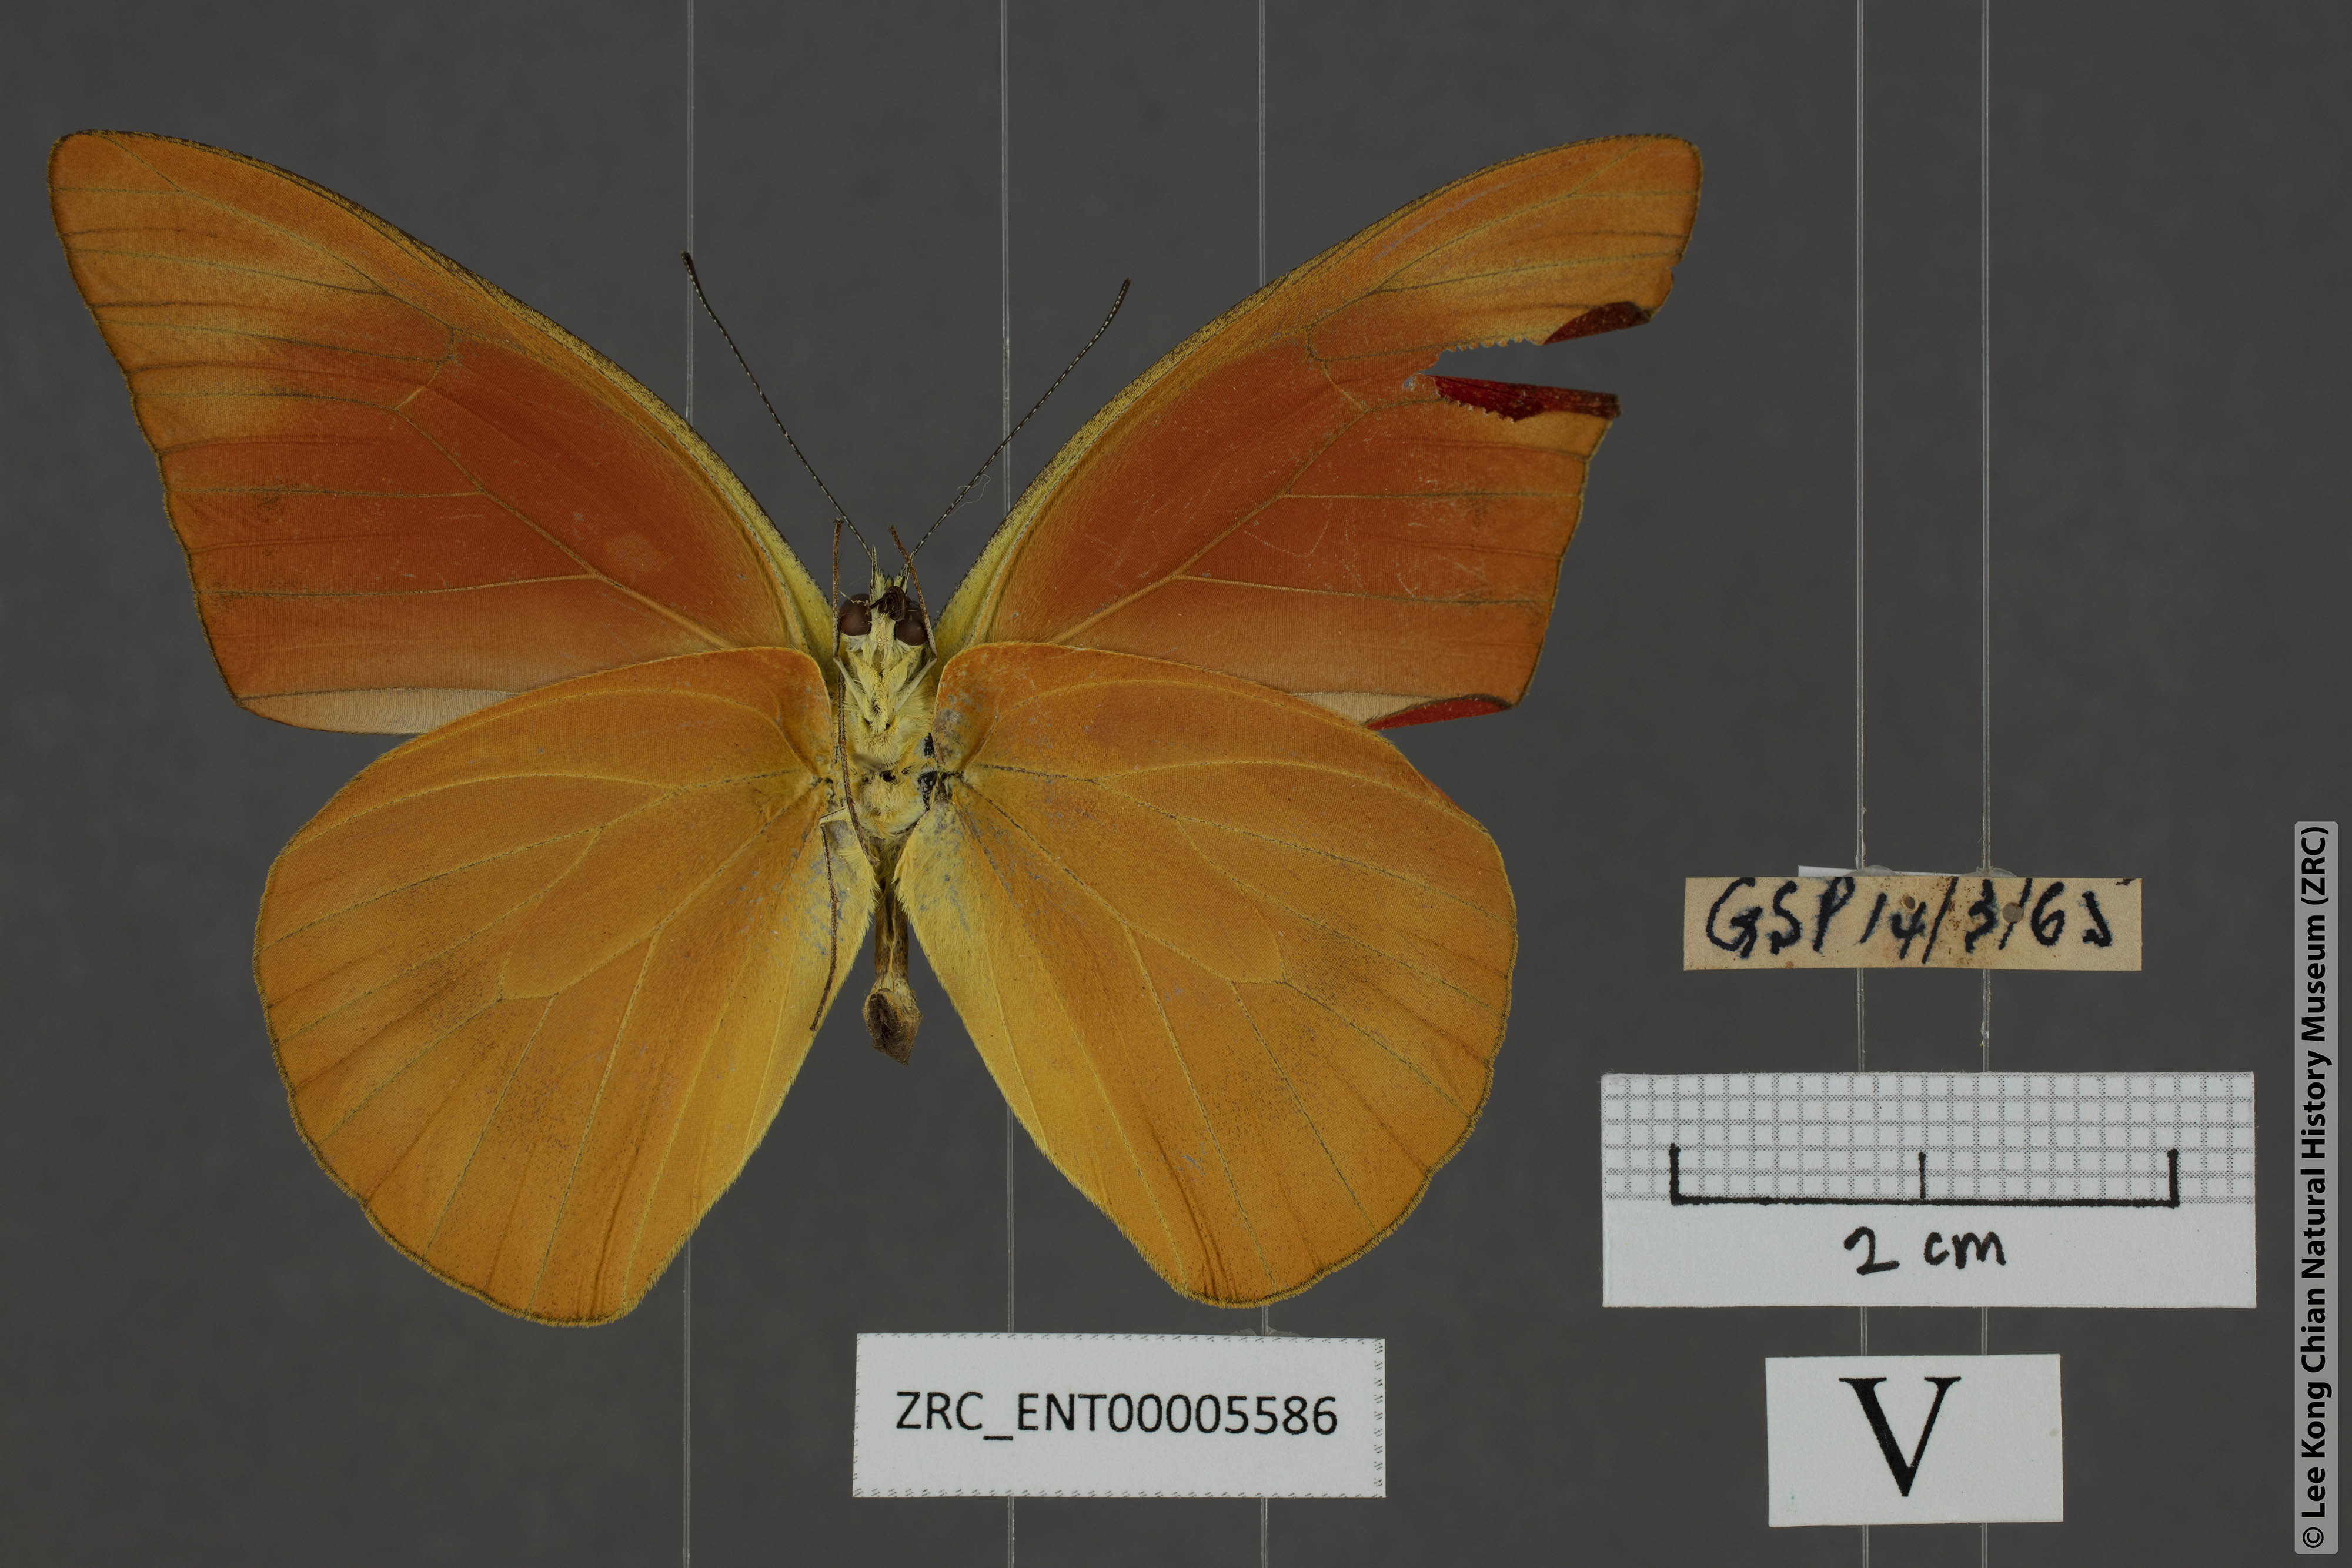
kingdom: Animalia
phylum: Arthropoda
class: Insecta
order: Lepidoptera
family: Pieridae
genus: Appias
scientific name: Appias nero
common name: Orange albatross
